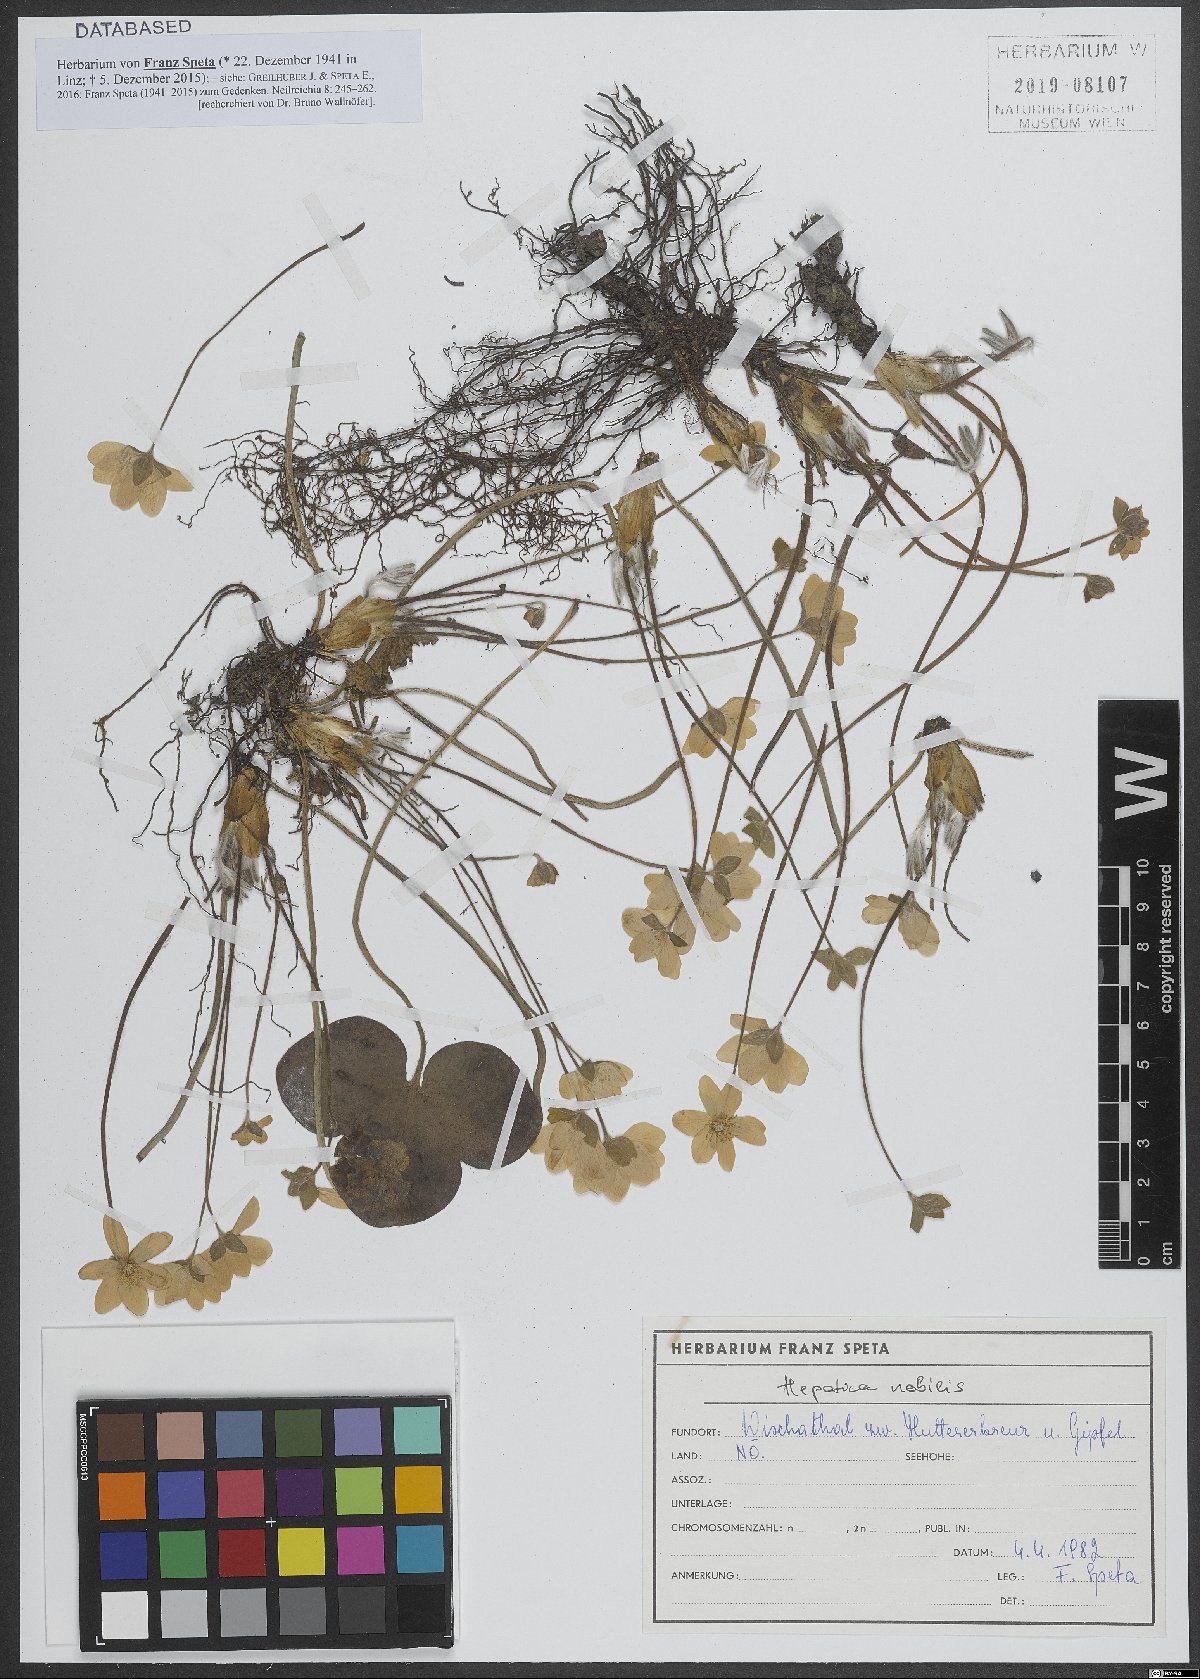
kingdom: Plantae
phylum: Tracheophyta
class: Magnoliopsida
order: Ranunculales
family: Ranunculaceae
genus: Hepatica
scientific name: Hepatica nobilis
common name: Liverleaf
